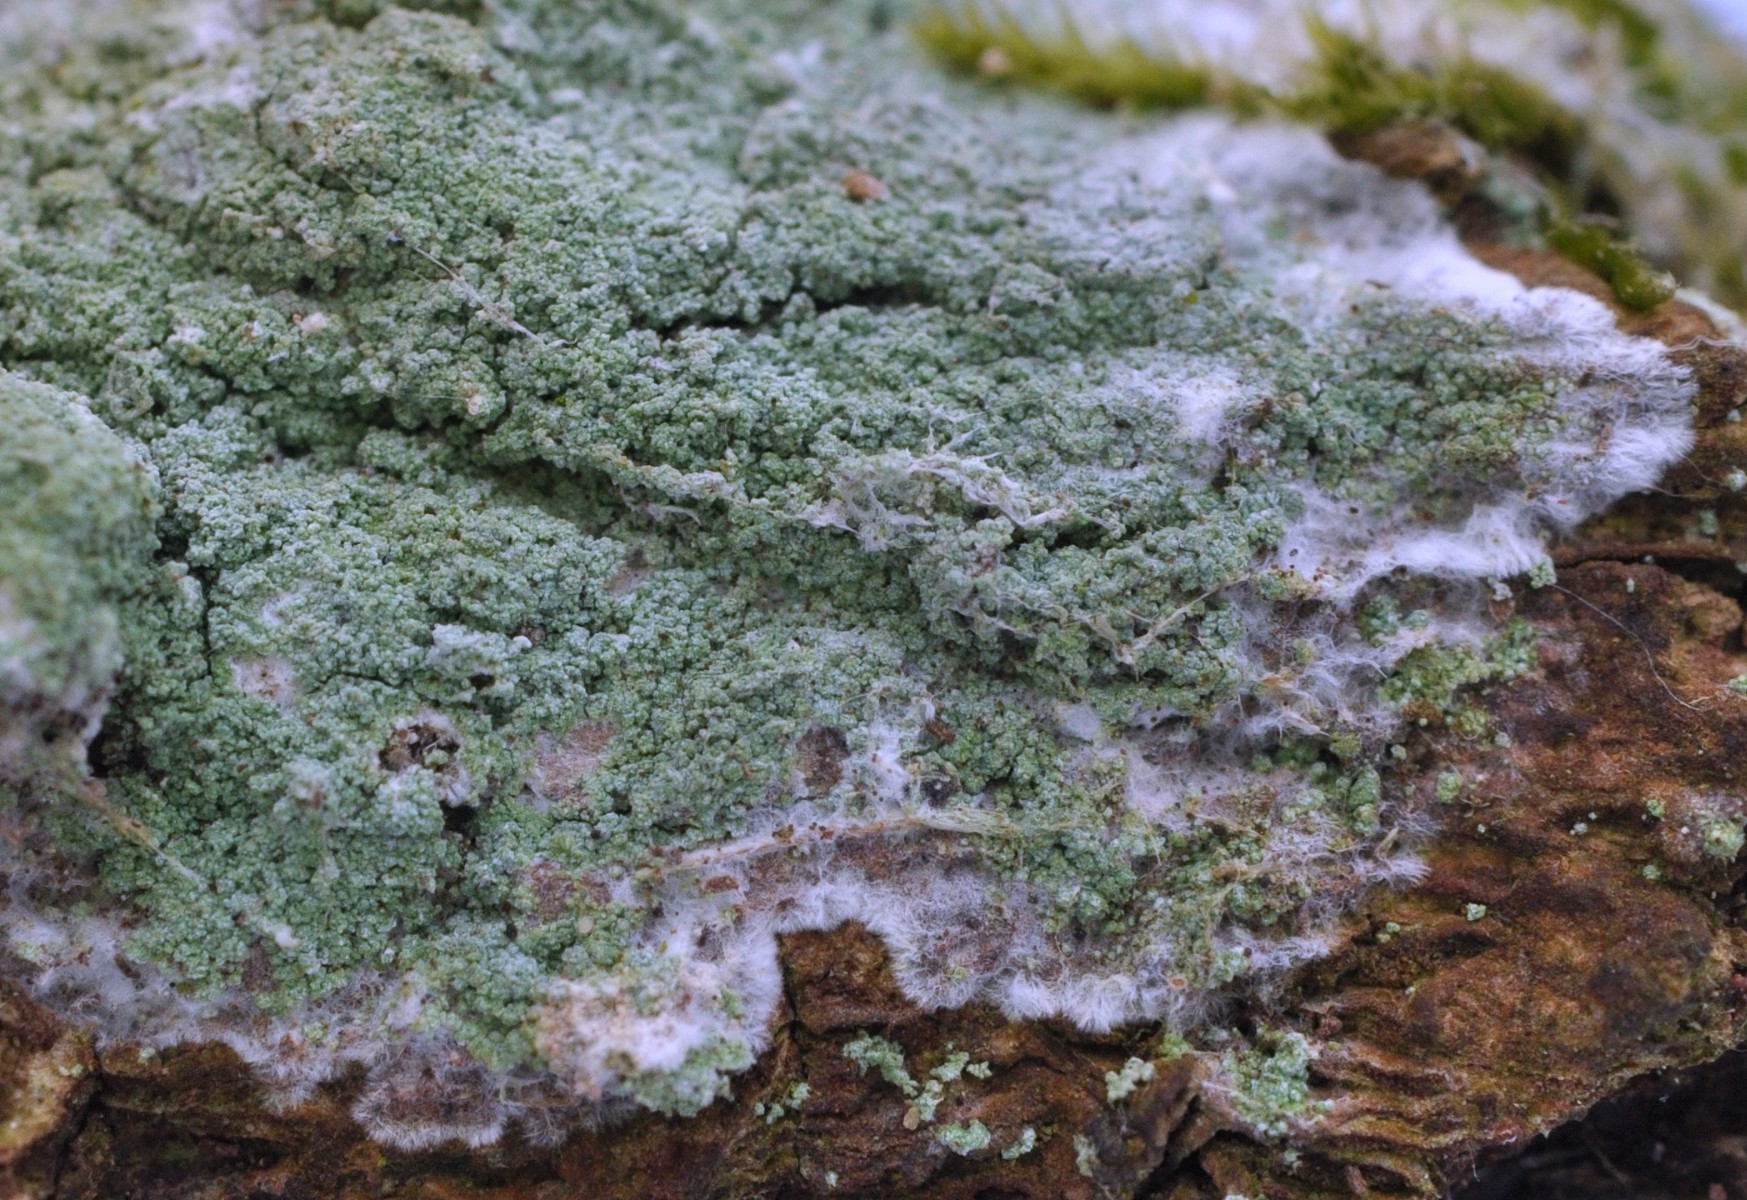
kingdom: Fungi
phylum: Ascomycota
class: Lecanoromycetes
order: Lecanorales
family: Haematommataceae
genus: Haematomma
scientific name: Haematomma ochroleucum
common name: gul trådkantlav
